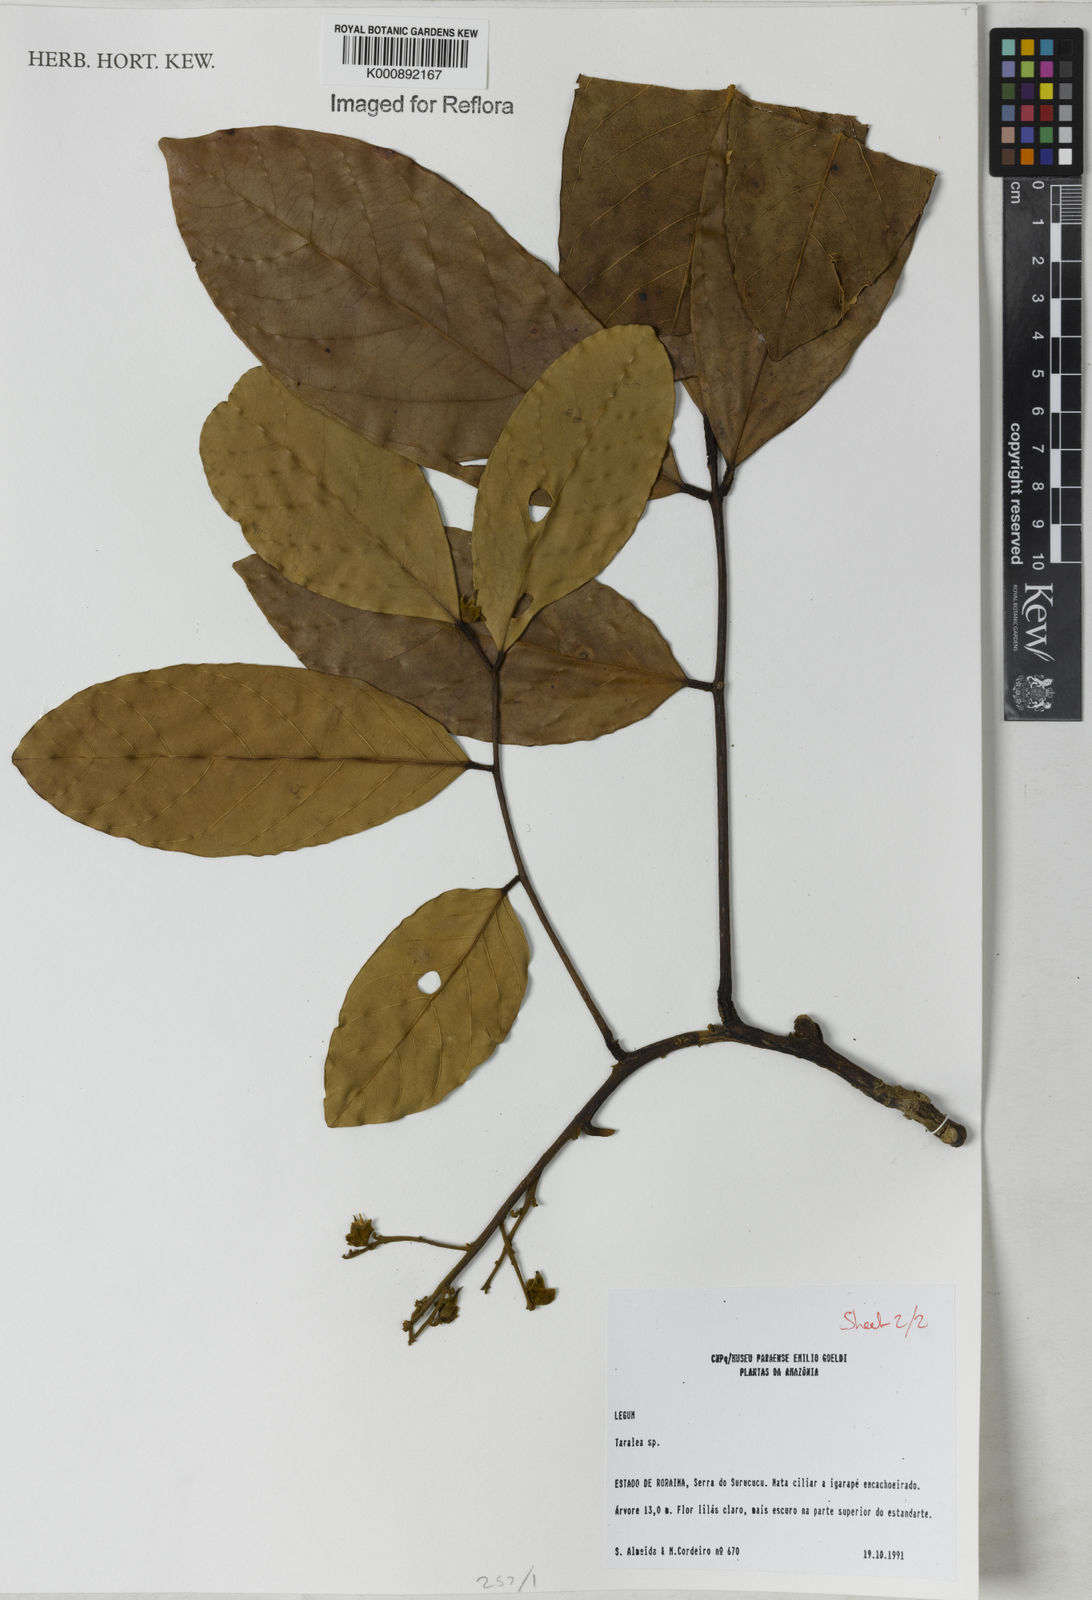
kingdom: Plantae
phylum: Tracheophyta
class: Magnoliopsida
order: Fabales
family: Fabaceae
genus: Taralea
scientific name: Taralea
